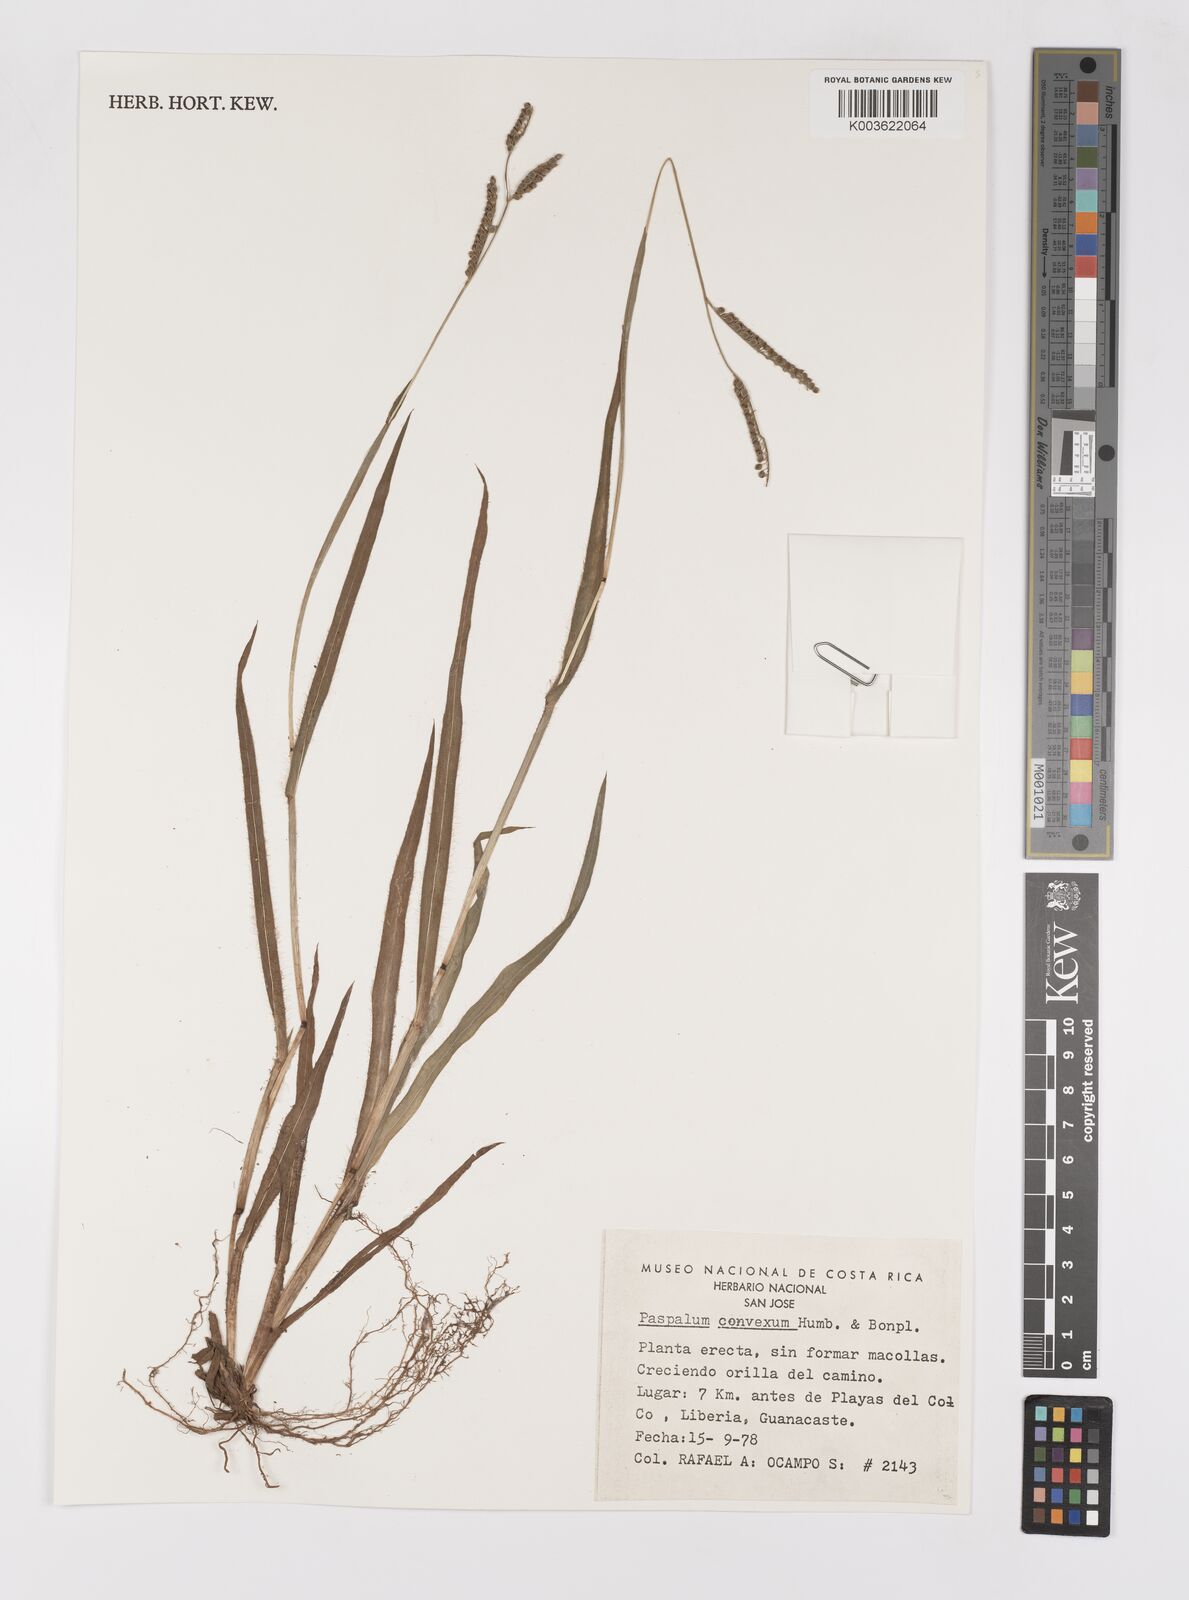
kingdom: Plantae
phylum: Tracheophyta
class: Liliopsida
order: Poales
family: Poaceae
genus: Paspalum
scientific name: Paspalum convexum
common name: Latin american crowngrass
